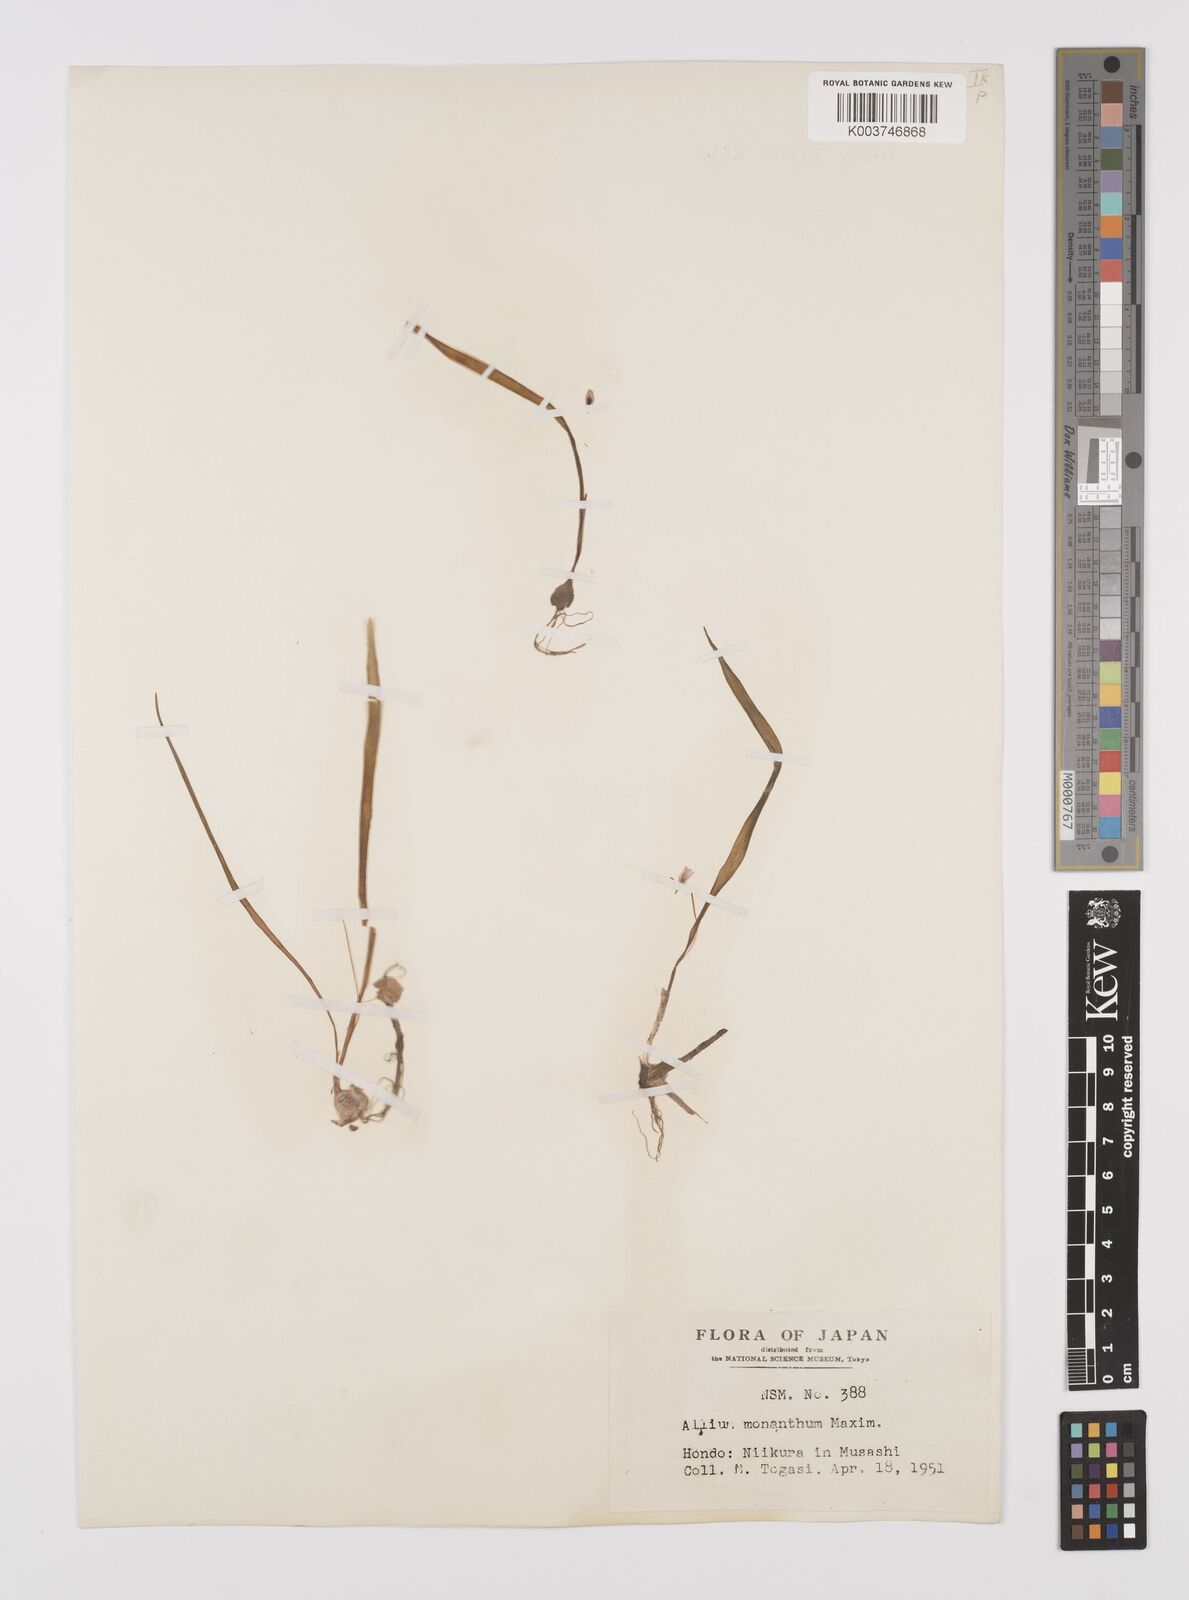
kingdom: Plantae
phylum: Tracheophyta
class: Liliopsida
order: Asparagales
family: Amaryllidaceae
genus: Allium
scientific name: Allium monanthum
